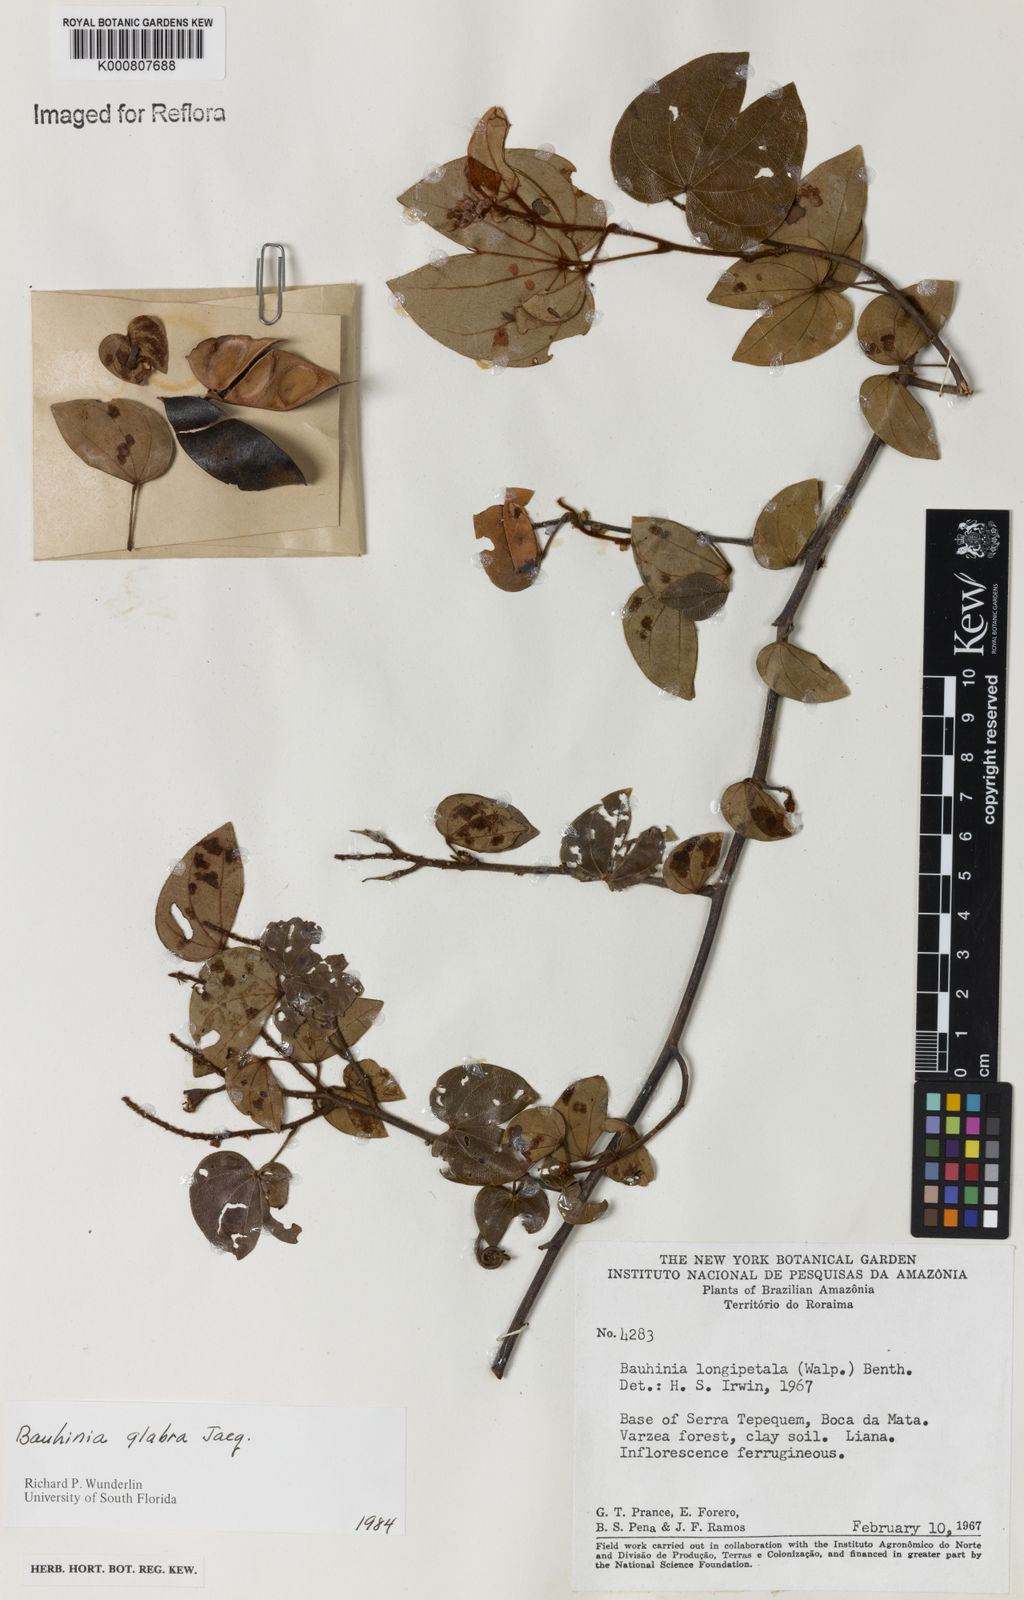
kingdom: Plantae
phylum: Tracheophyta
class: Magnoliopsida
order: Fabales
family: Fabaceae
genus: Schnella
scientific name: Schnella glabra
